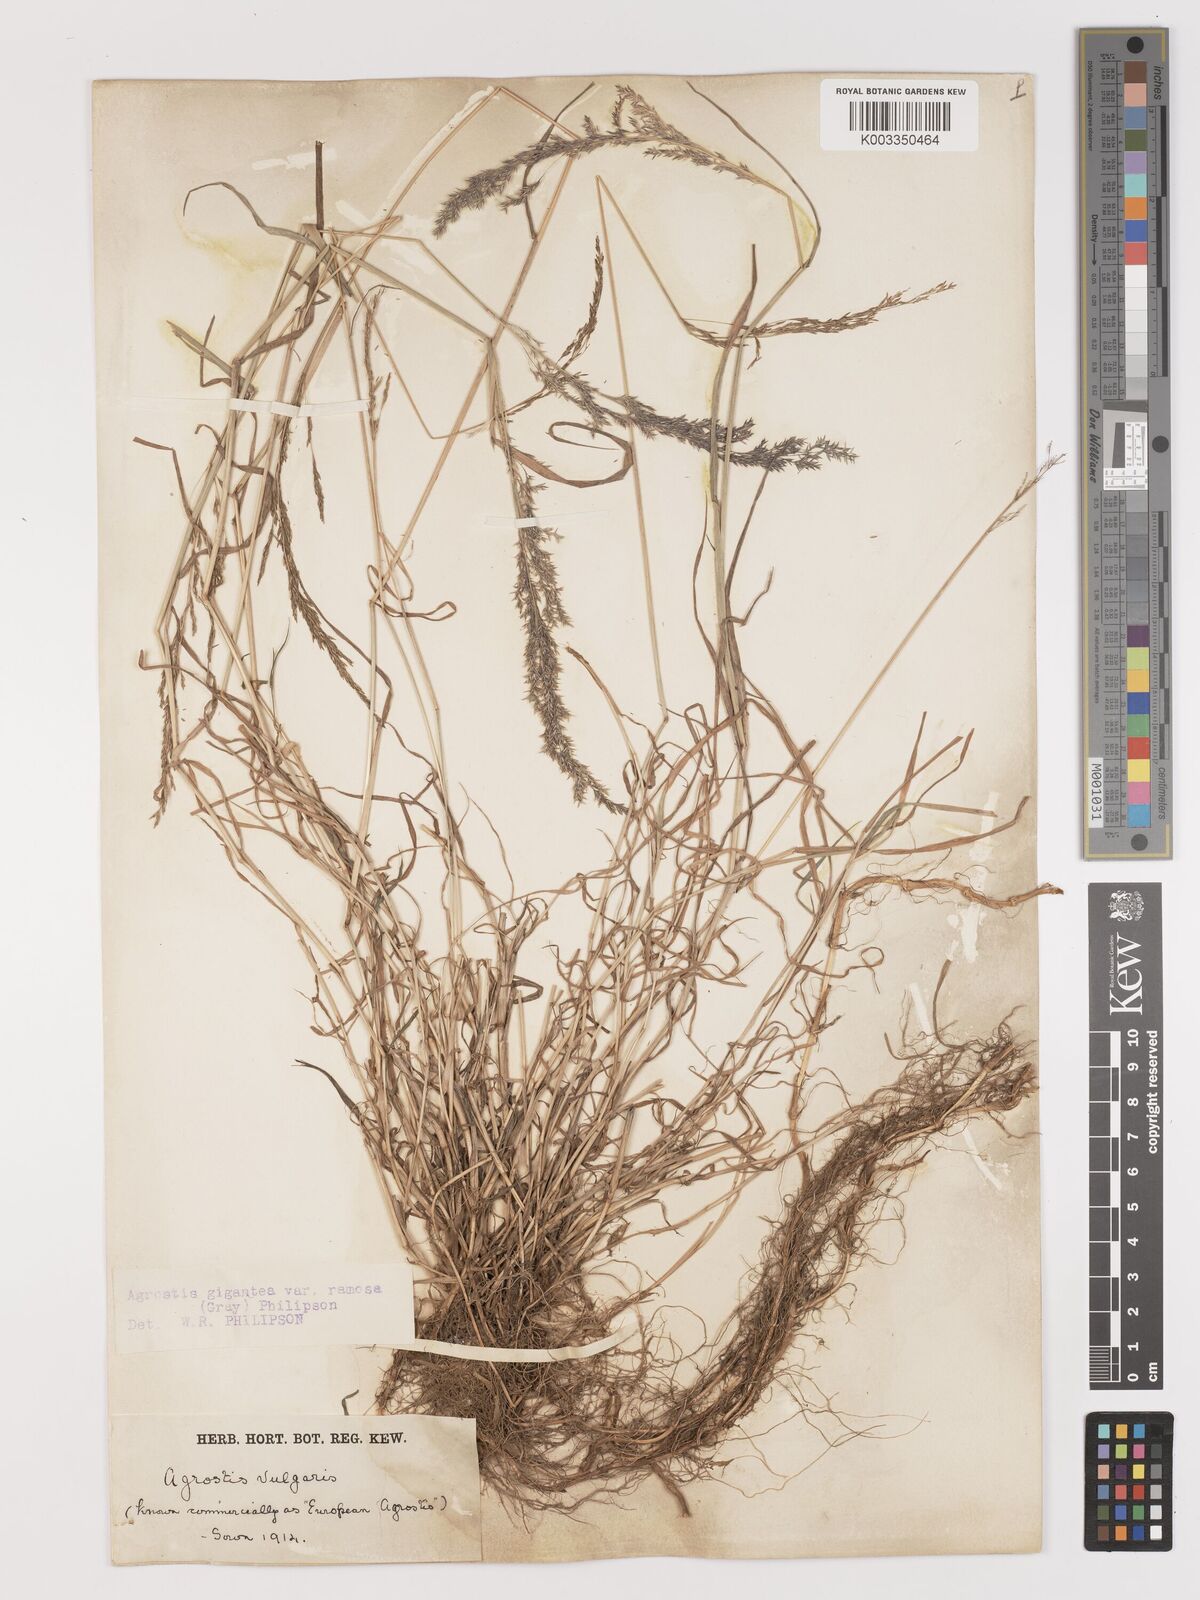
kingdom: Plantae
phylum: Tracheophyta
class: Liliopsida
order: Poales
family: Poaceae
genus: Agrostis
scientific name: Agrostis gigantea
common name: Black bent
